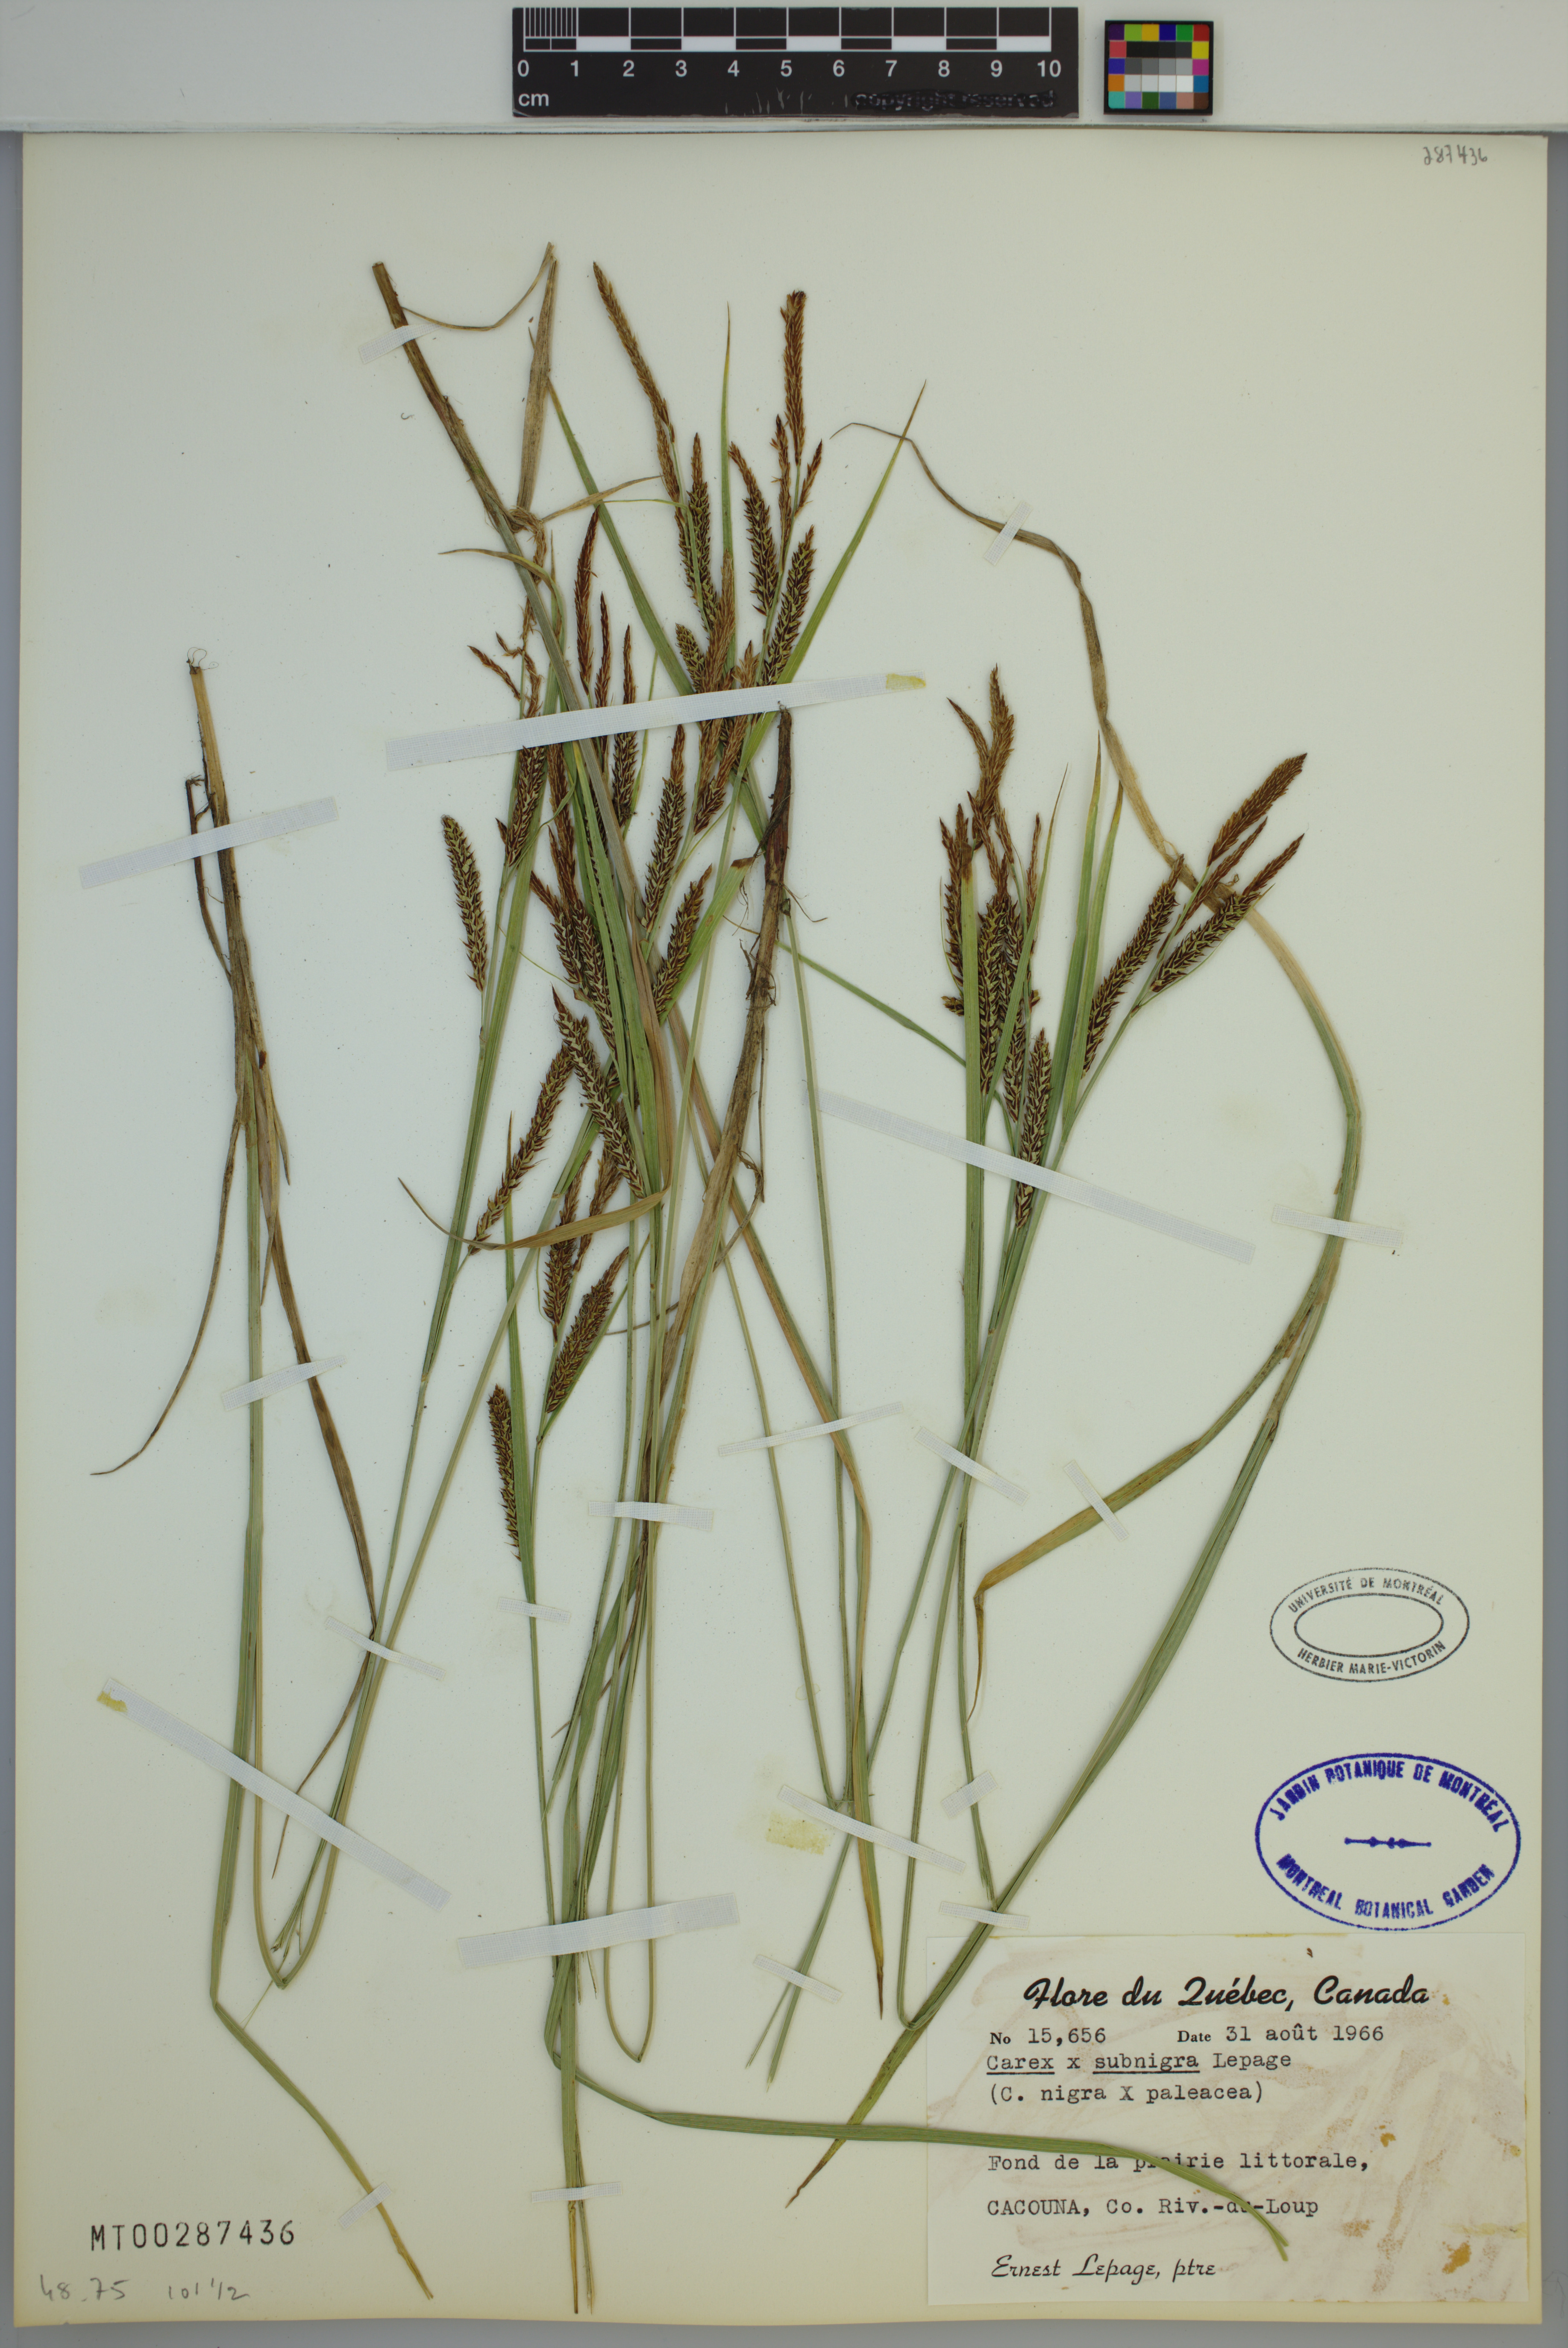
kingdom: Plantae
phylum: Tracheophyta
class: Liliopsida
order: Poales
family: Cyperaceae
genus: Carex
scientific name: Carex vacillans
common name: Sedge
